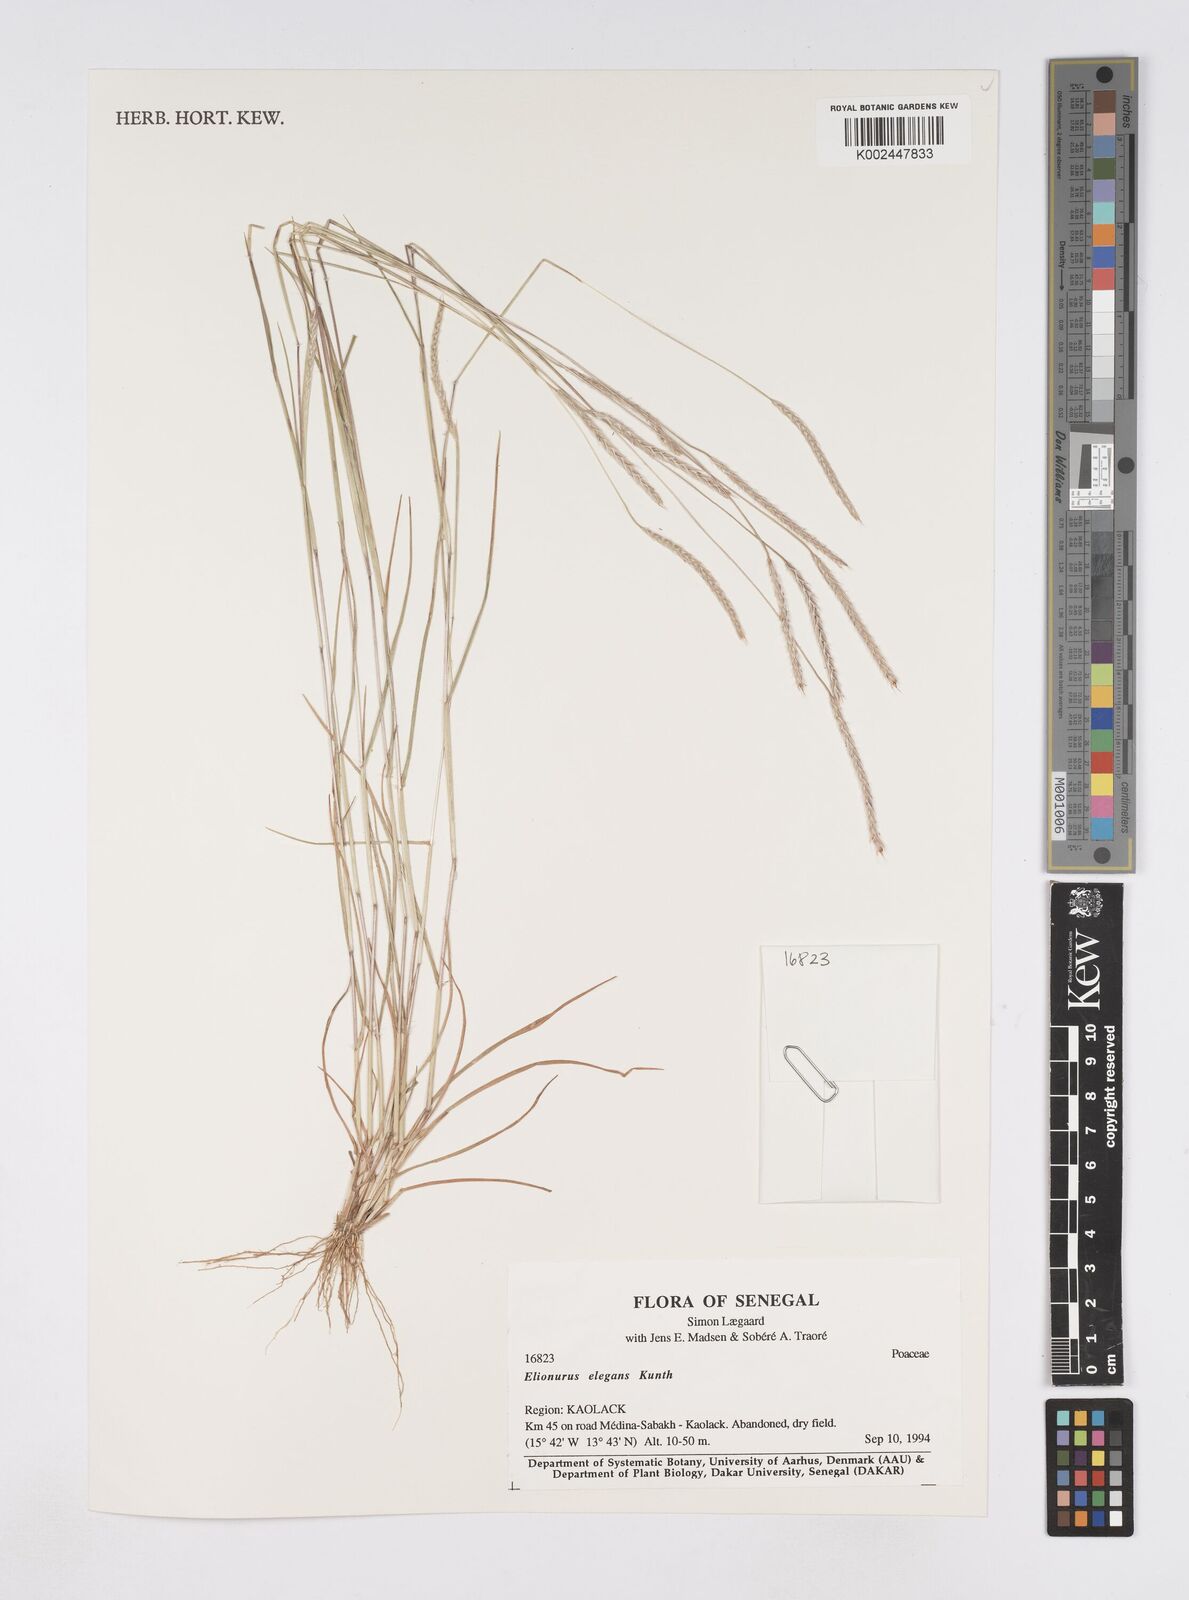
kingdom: Plantae
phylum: Tracheophyta
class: Liliopsida
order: Poales
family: Poaceae
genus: Elionurus
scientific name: Elionurus elegans
